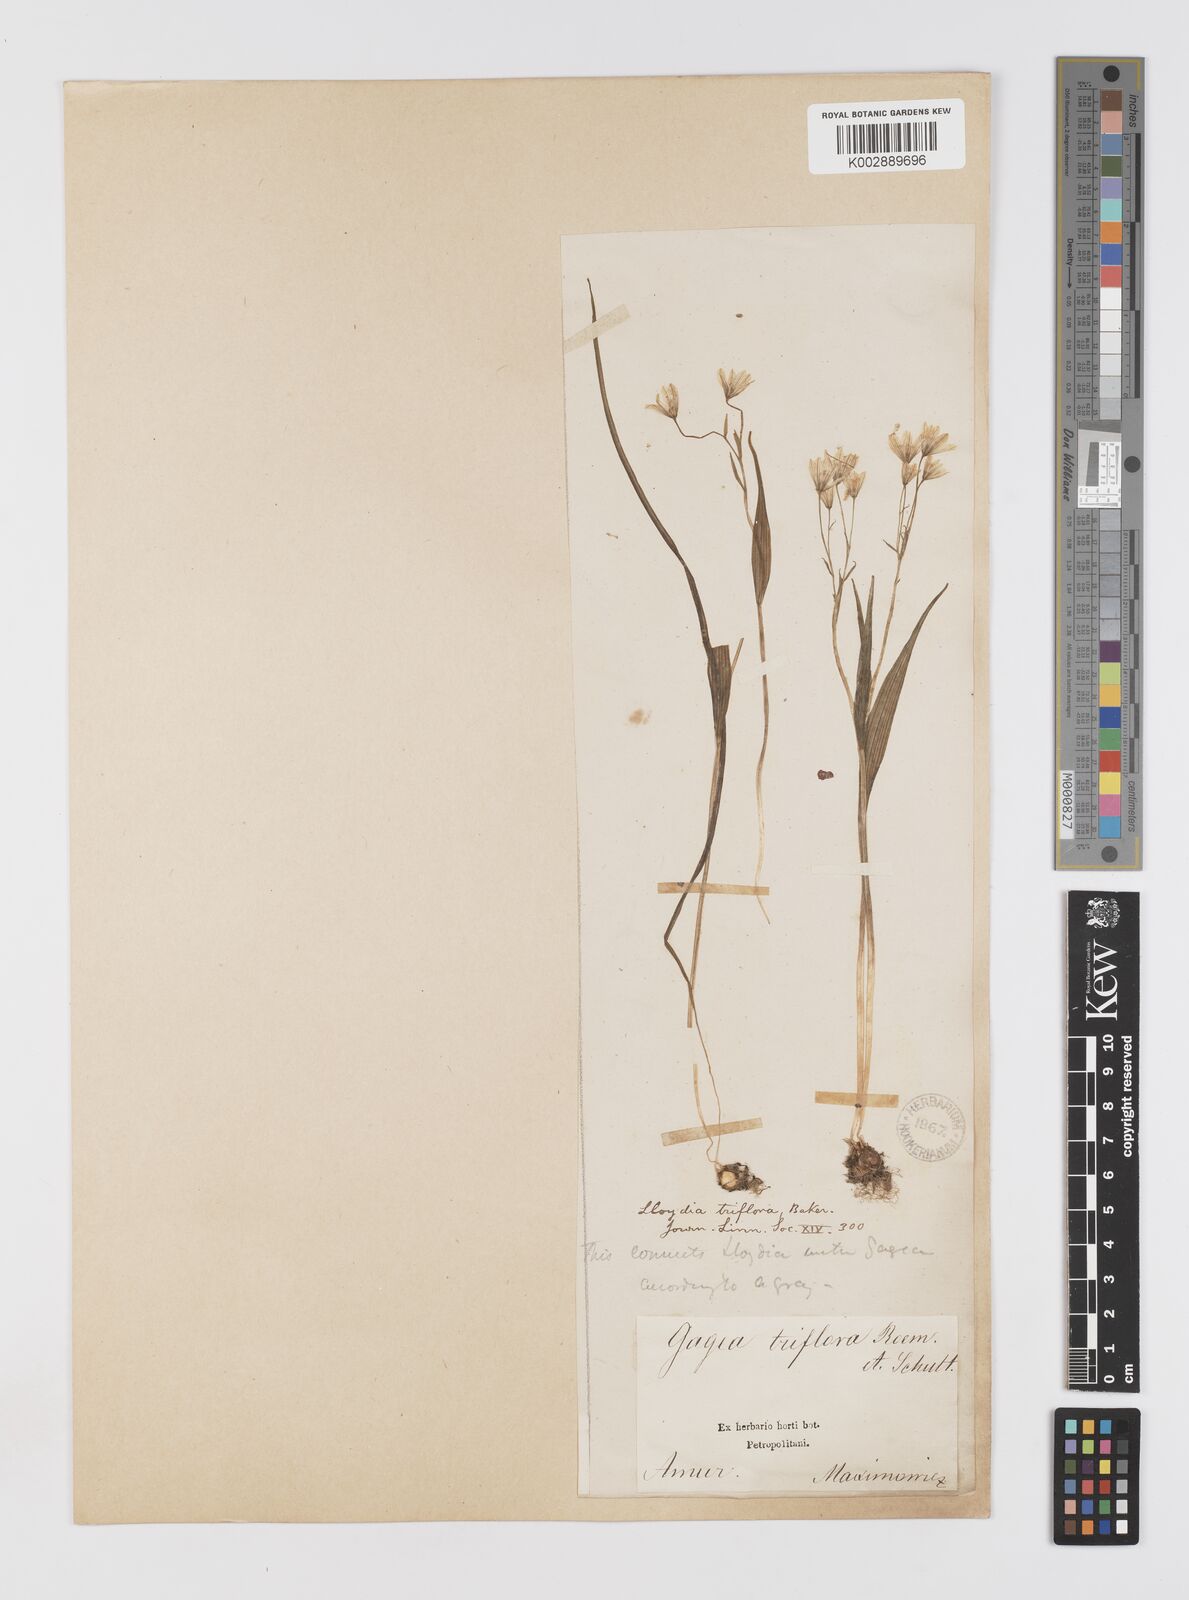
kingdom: Plantae
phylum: Tracheophyta
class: Liliopsida
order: Liliales
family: Liliaceae
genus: Gagea
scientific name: Gagea triflora
